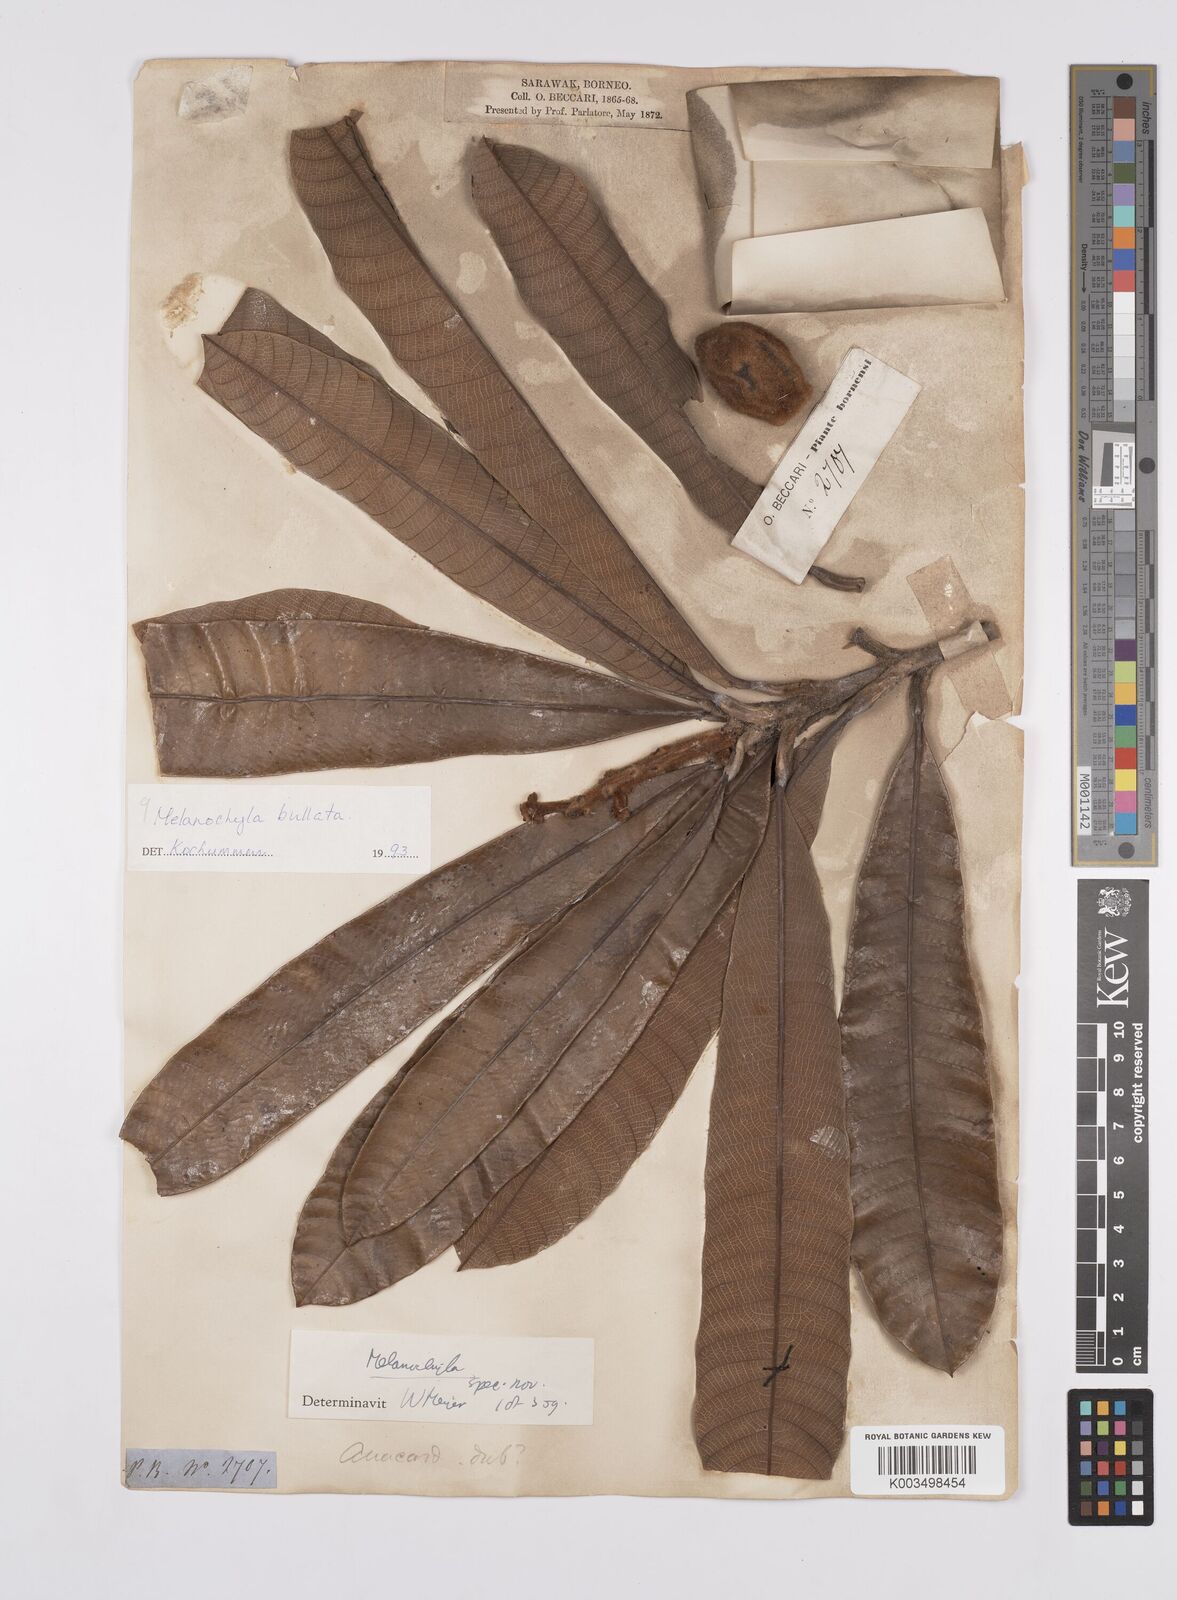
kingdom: Plantae
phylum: Tracheophyta
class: Magnoliopsida
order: Sapindales
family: Anacardiaceae
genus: Melanochyla
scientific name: Melanochyla bullata
